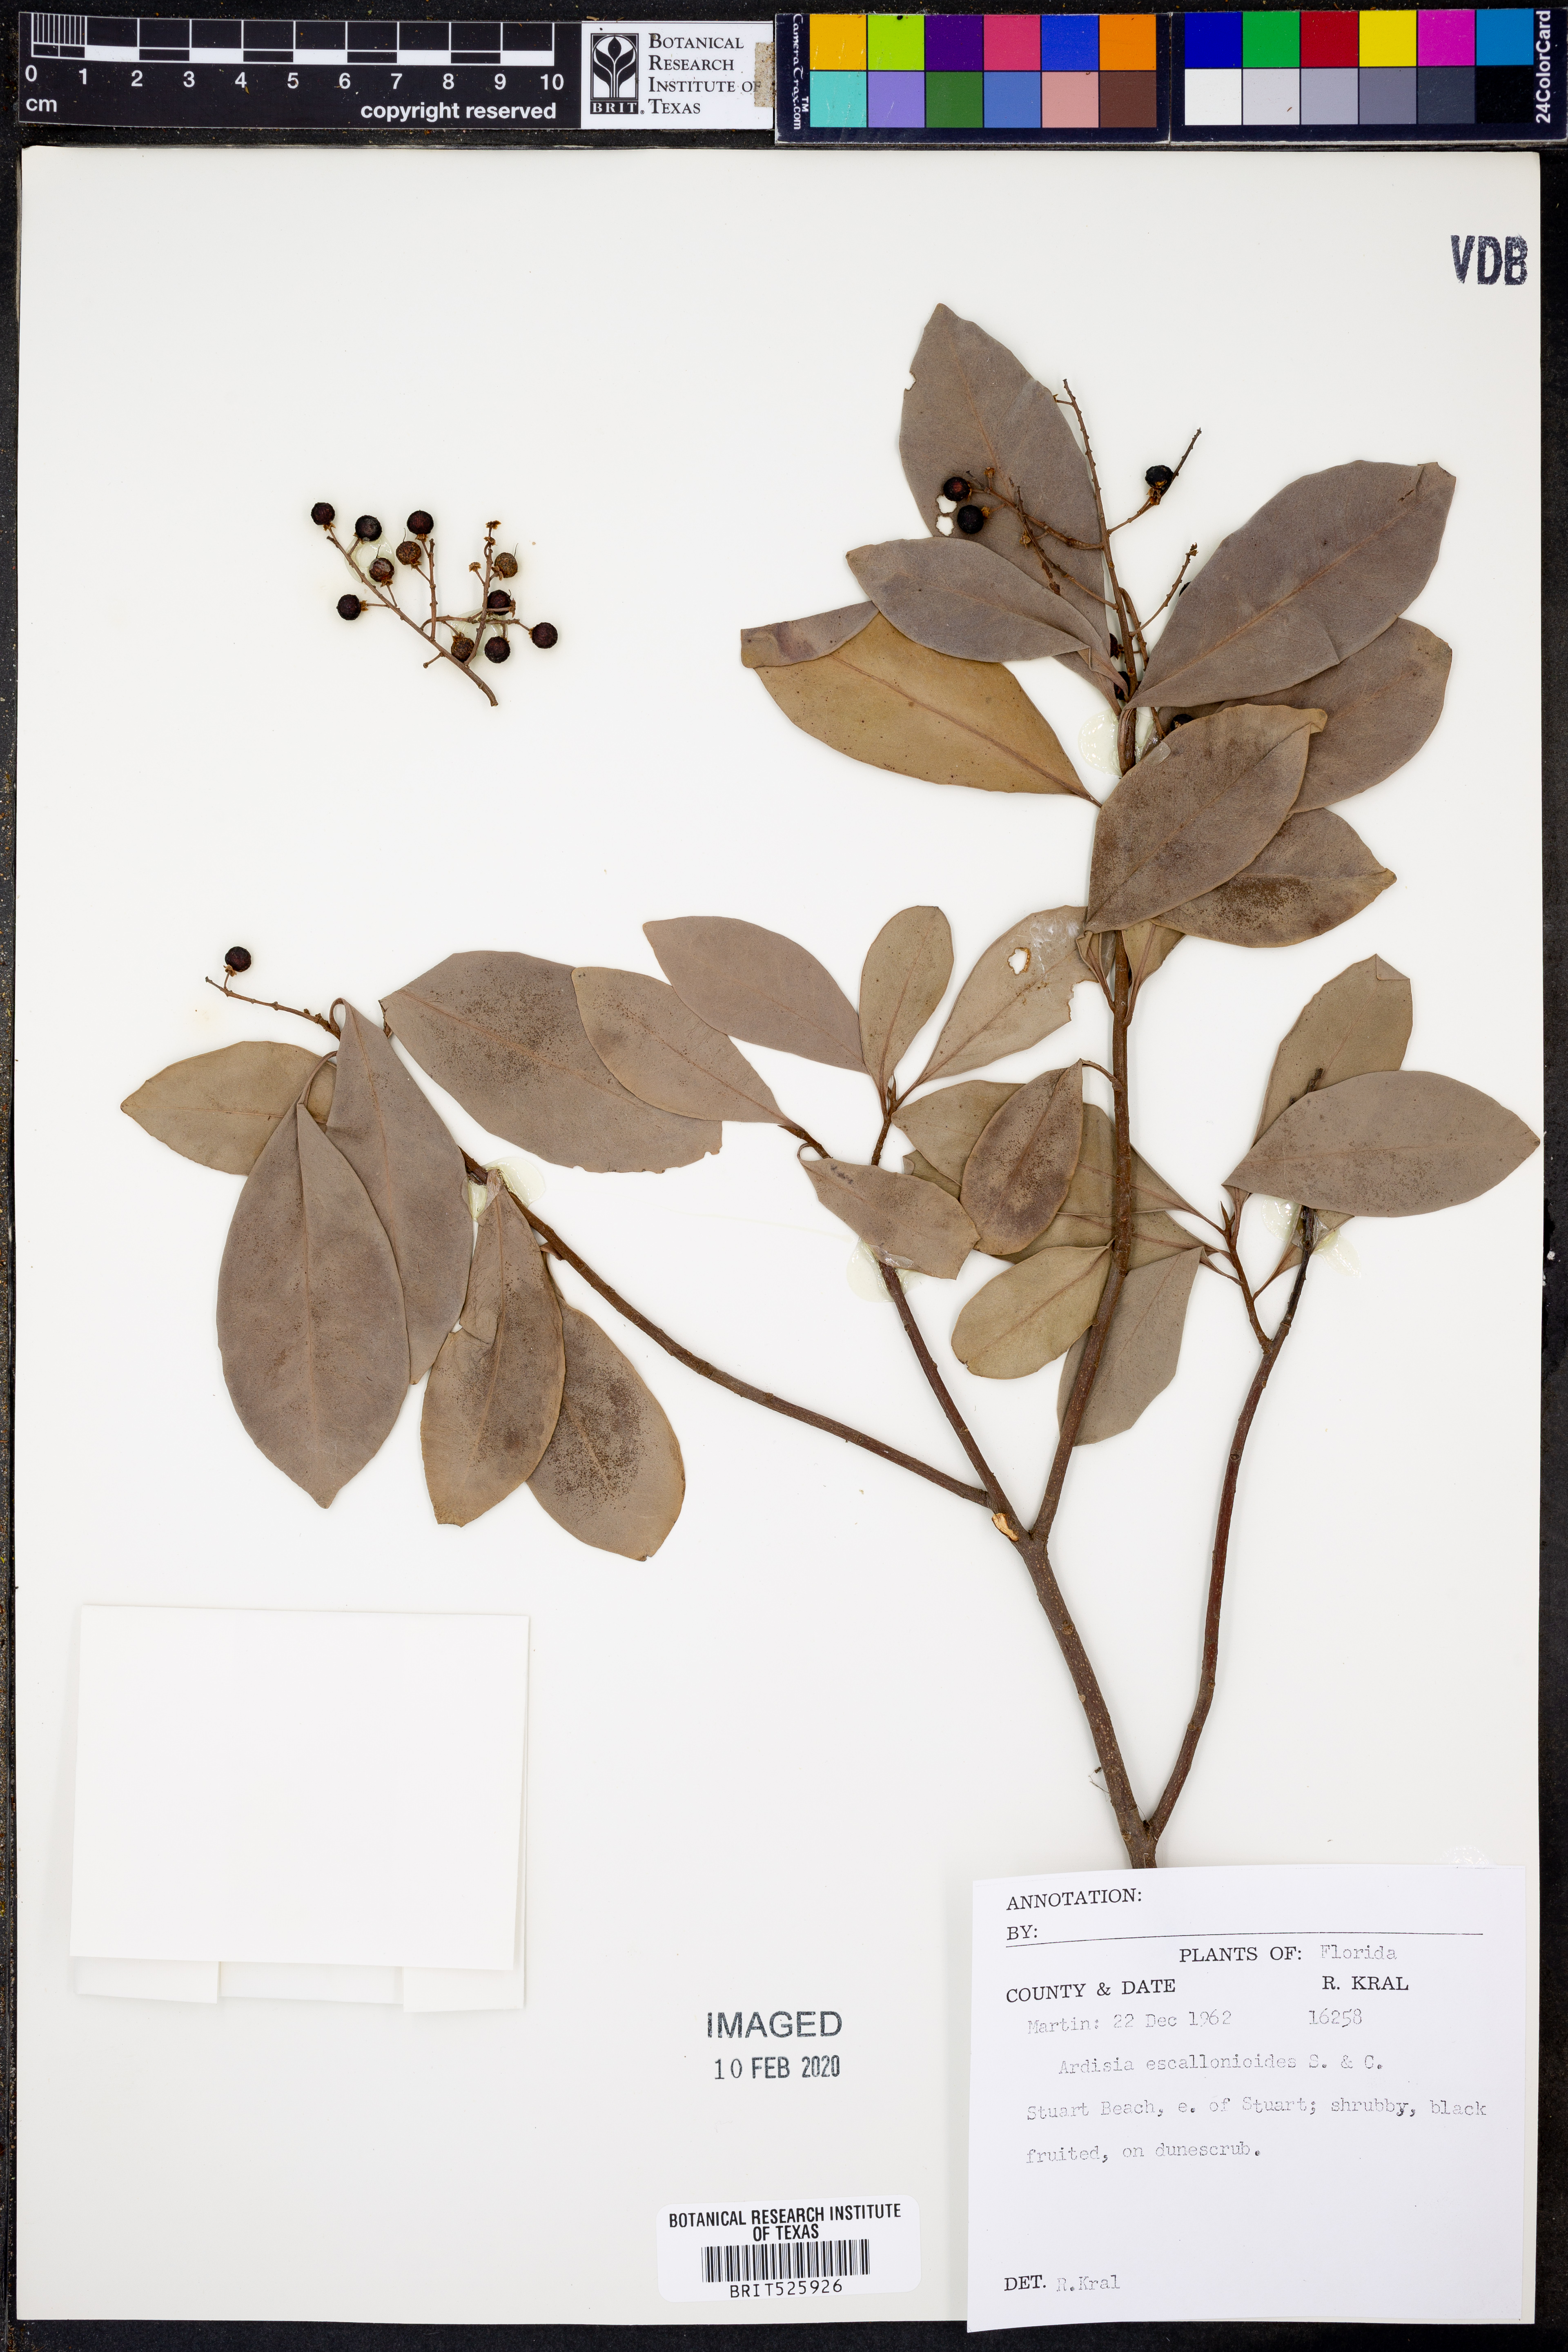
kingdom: Plantae
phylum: Tracheophyta
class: Magnoliopsida
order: Ericales
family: Primulaceae
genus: Ardisia
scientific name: Ardisia escallonioides
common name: Island marlberry
